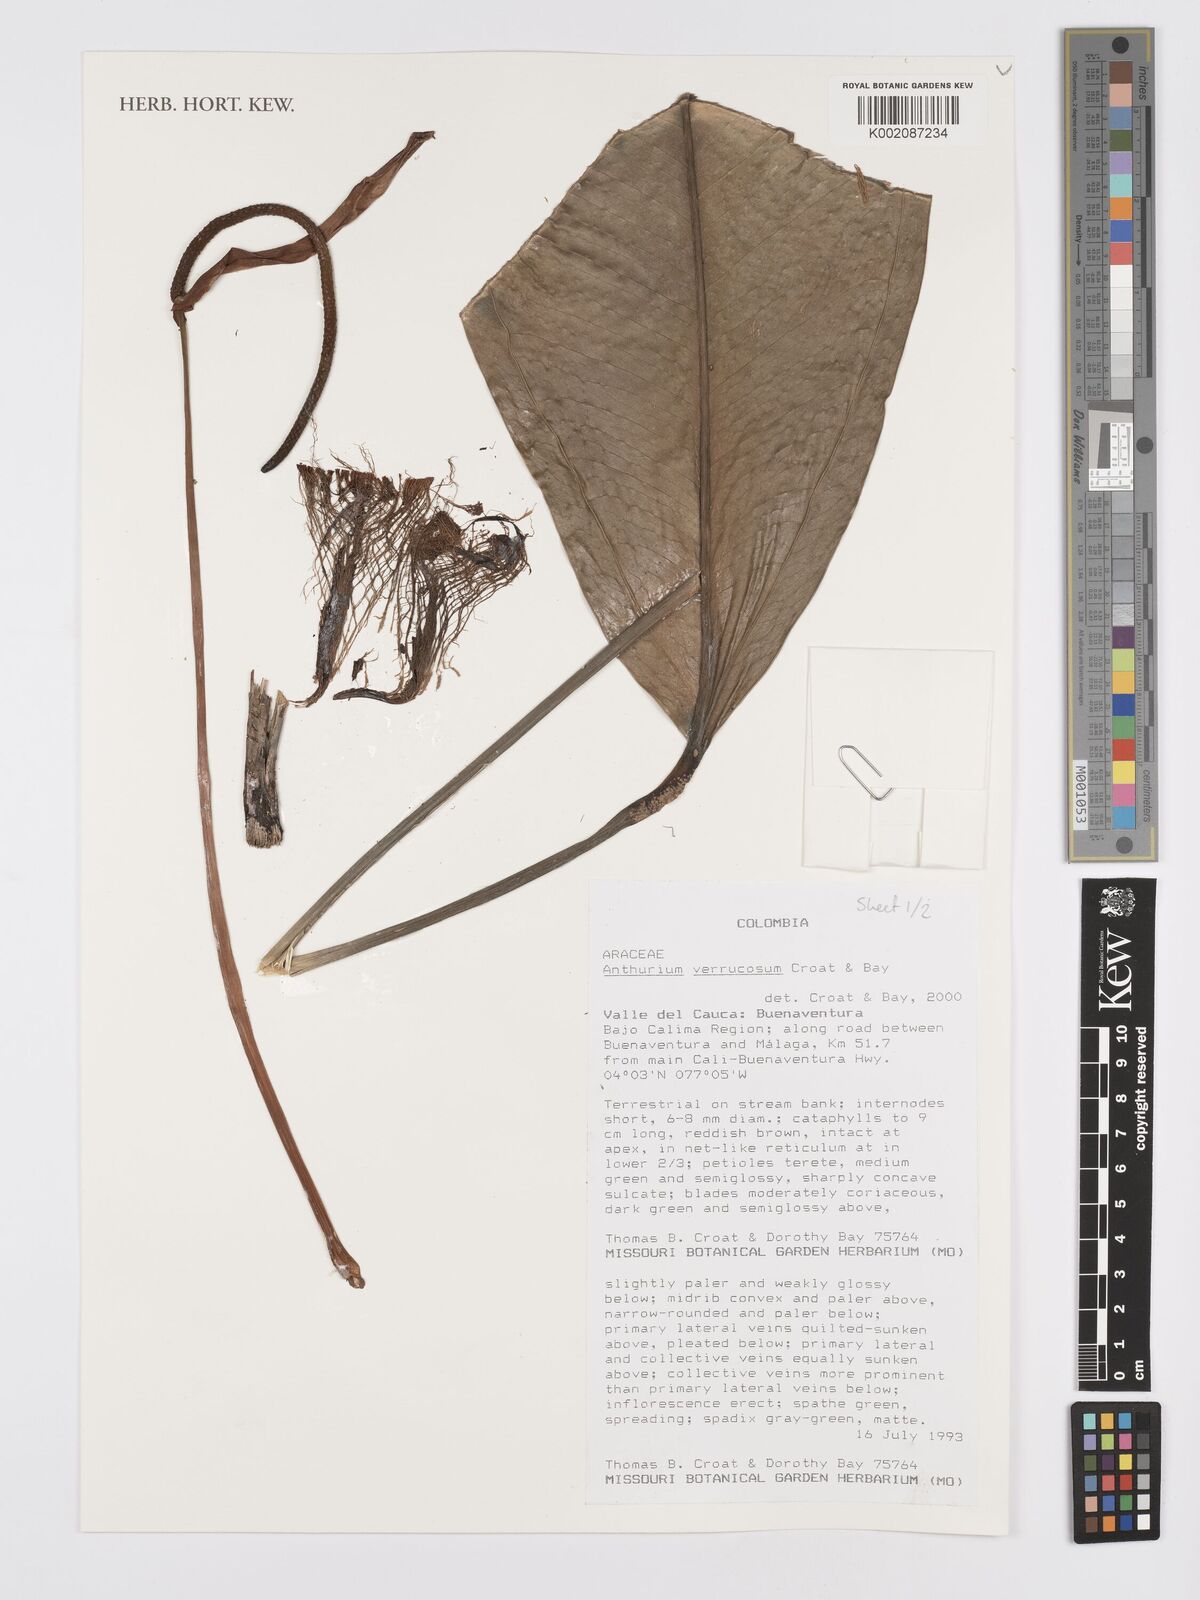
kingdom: Plantae
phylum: Tracheophyta
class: Liliopsida
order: Alismatales
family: Araceae
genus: Anthurium
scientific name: Anthurium verrucosum
